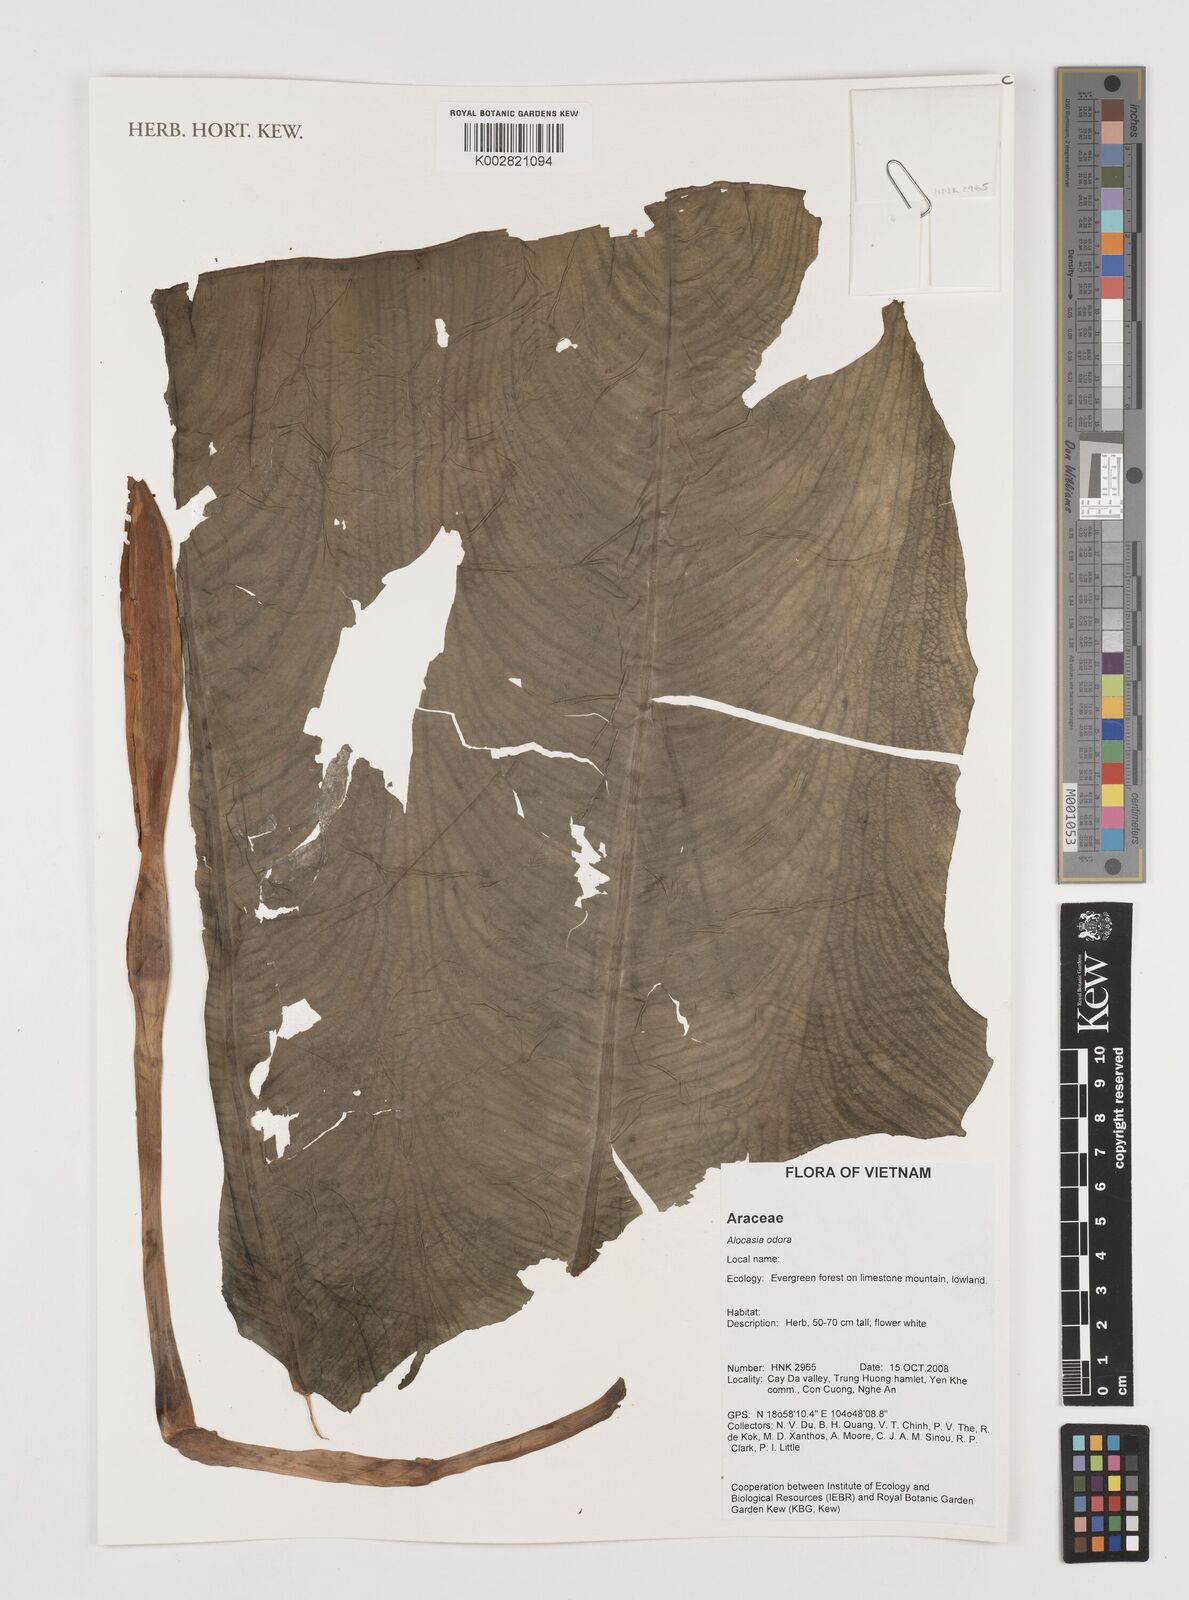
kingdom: Plantae
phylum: Tracheophyta
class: Liliopsida
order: Alismatales
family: Araceae
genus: Alocasia
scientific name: Alocasia odora
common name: Asian taro
